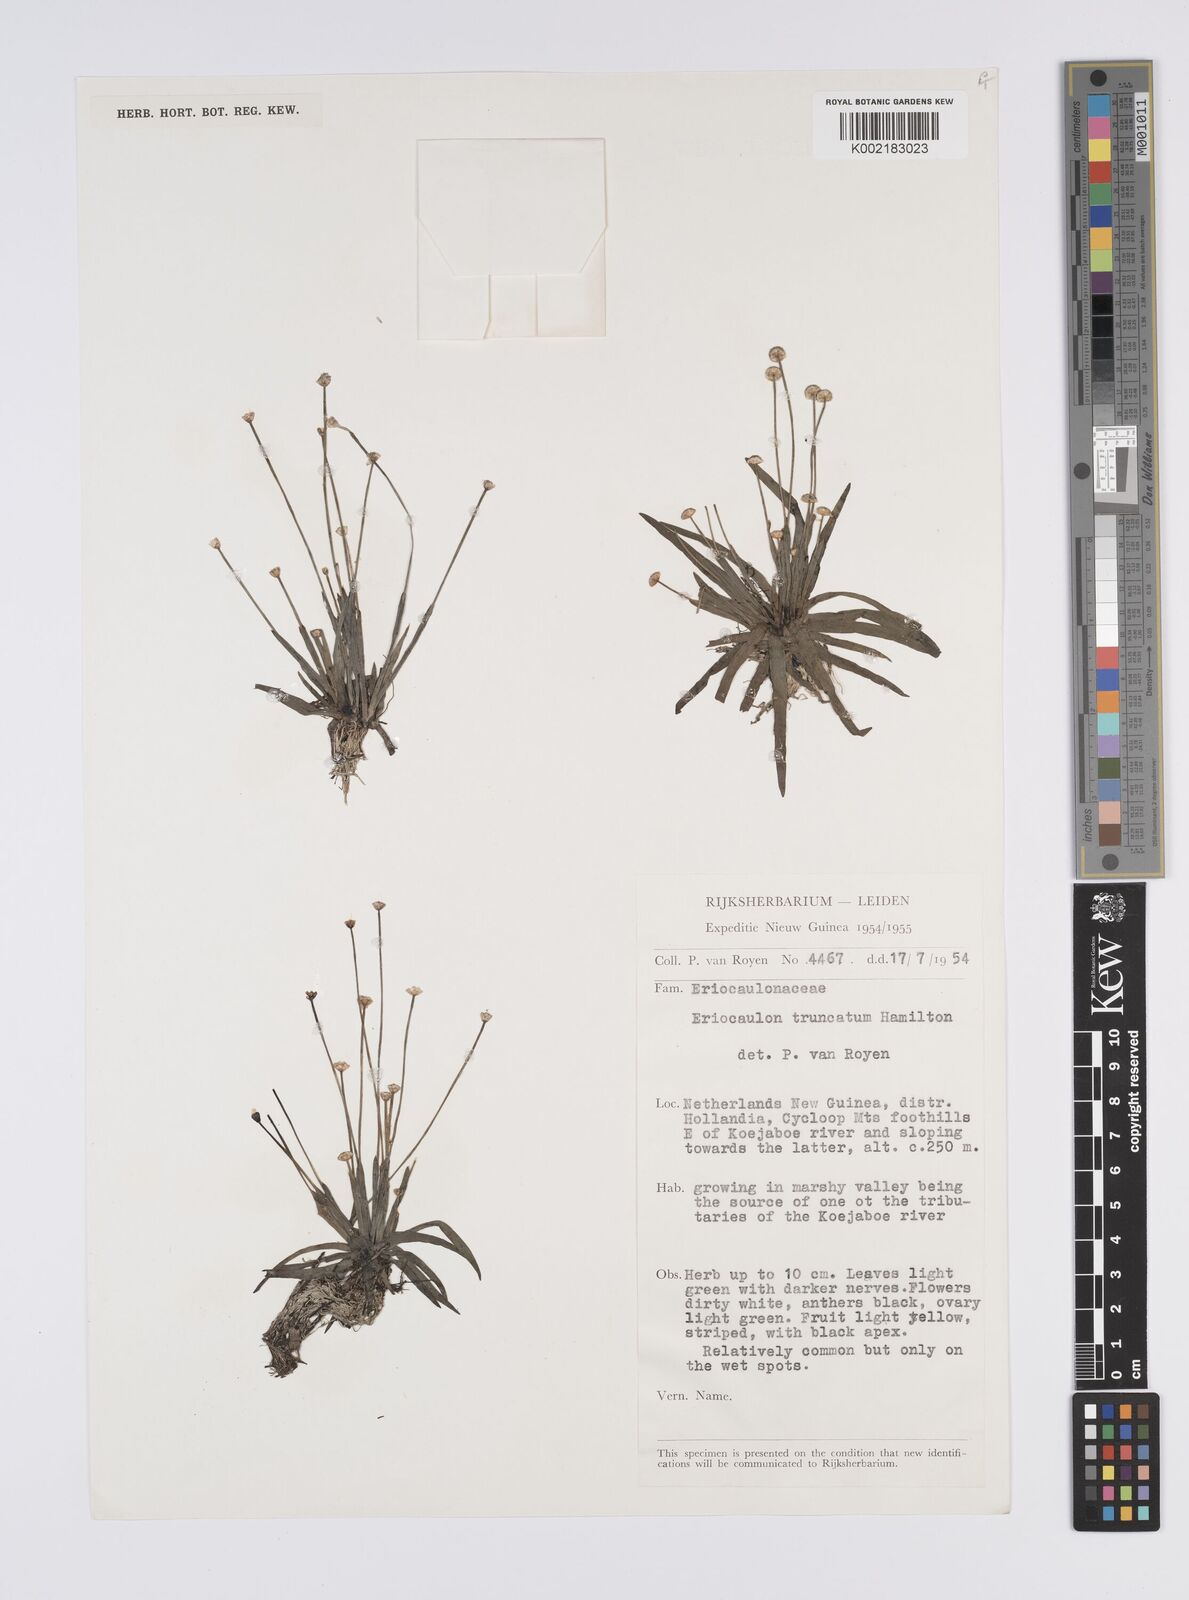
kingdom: Plantae
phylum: Tracheophyta
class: Liliopsida
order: Poales
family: Eriocaulaceae
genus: Eriocaulon
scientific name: Eriocaulon
